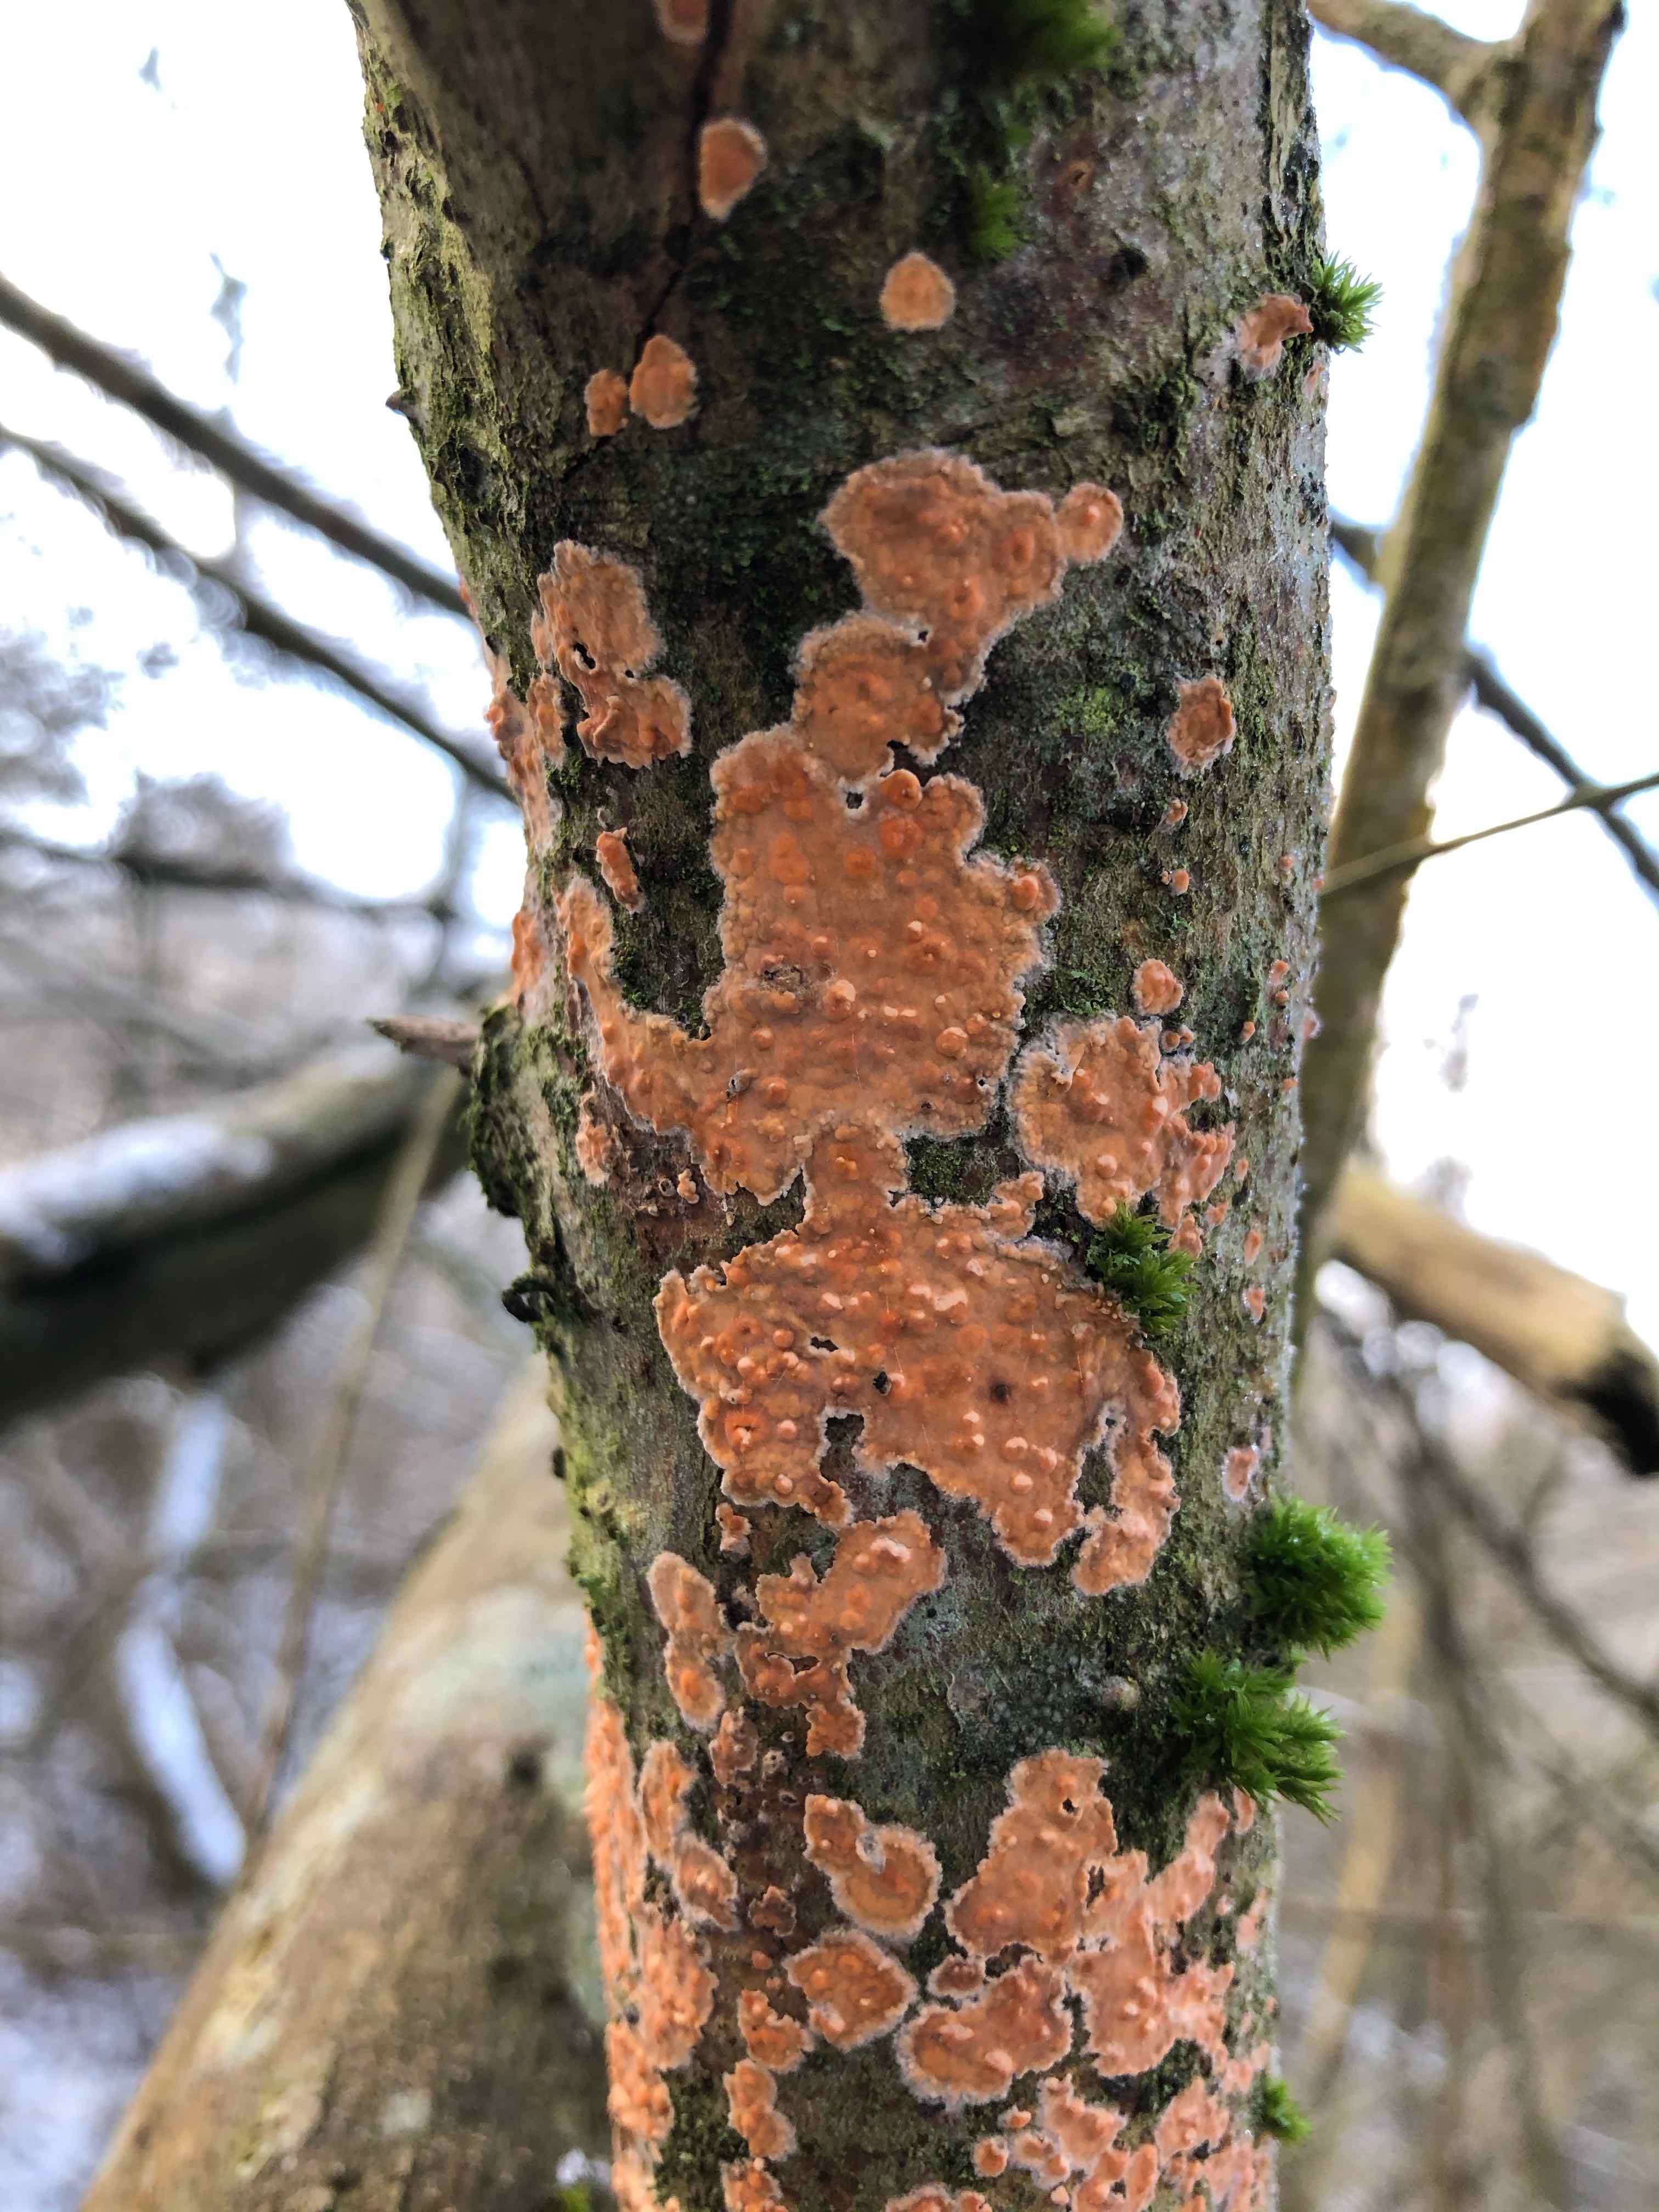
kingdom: Fungi
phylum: Basidiomycota
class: Agaricomycetes
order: Russulales
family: Peniophoraceae
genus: Peniophora
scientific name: Peniophora incarnata
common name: laksefarvet voksskind
